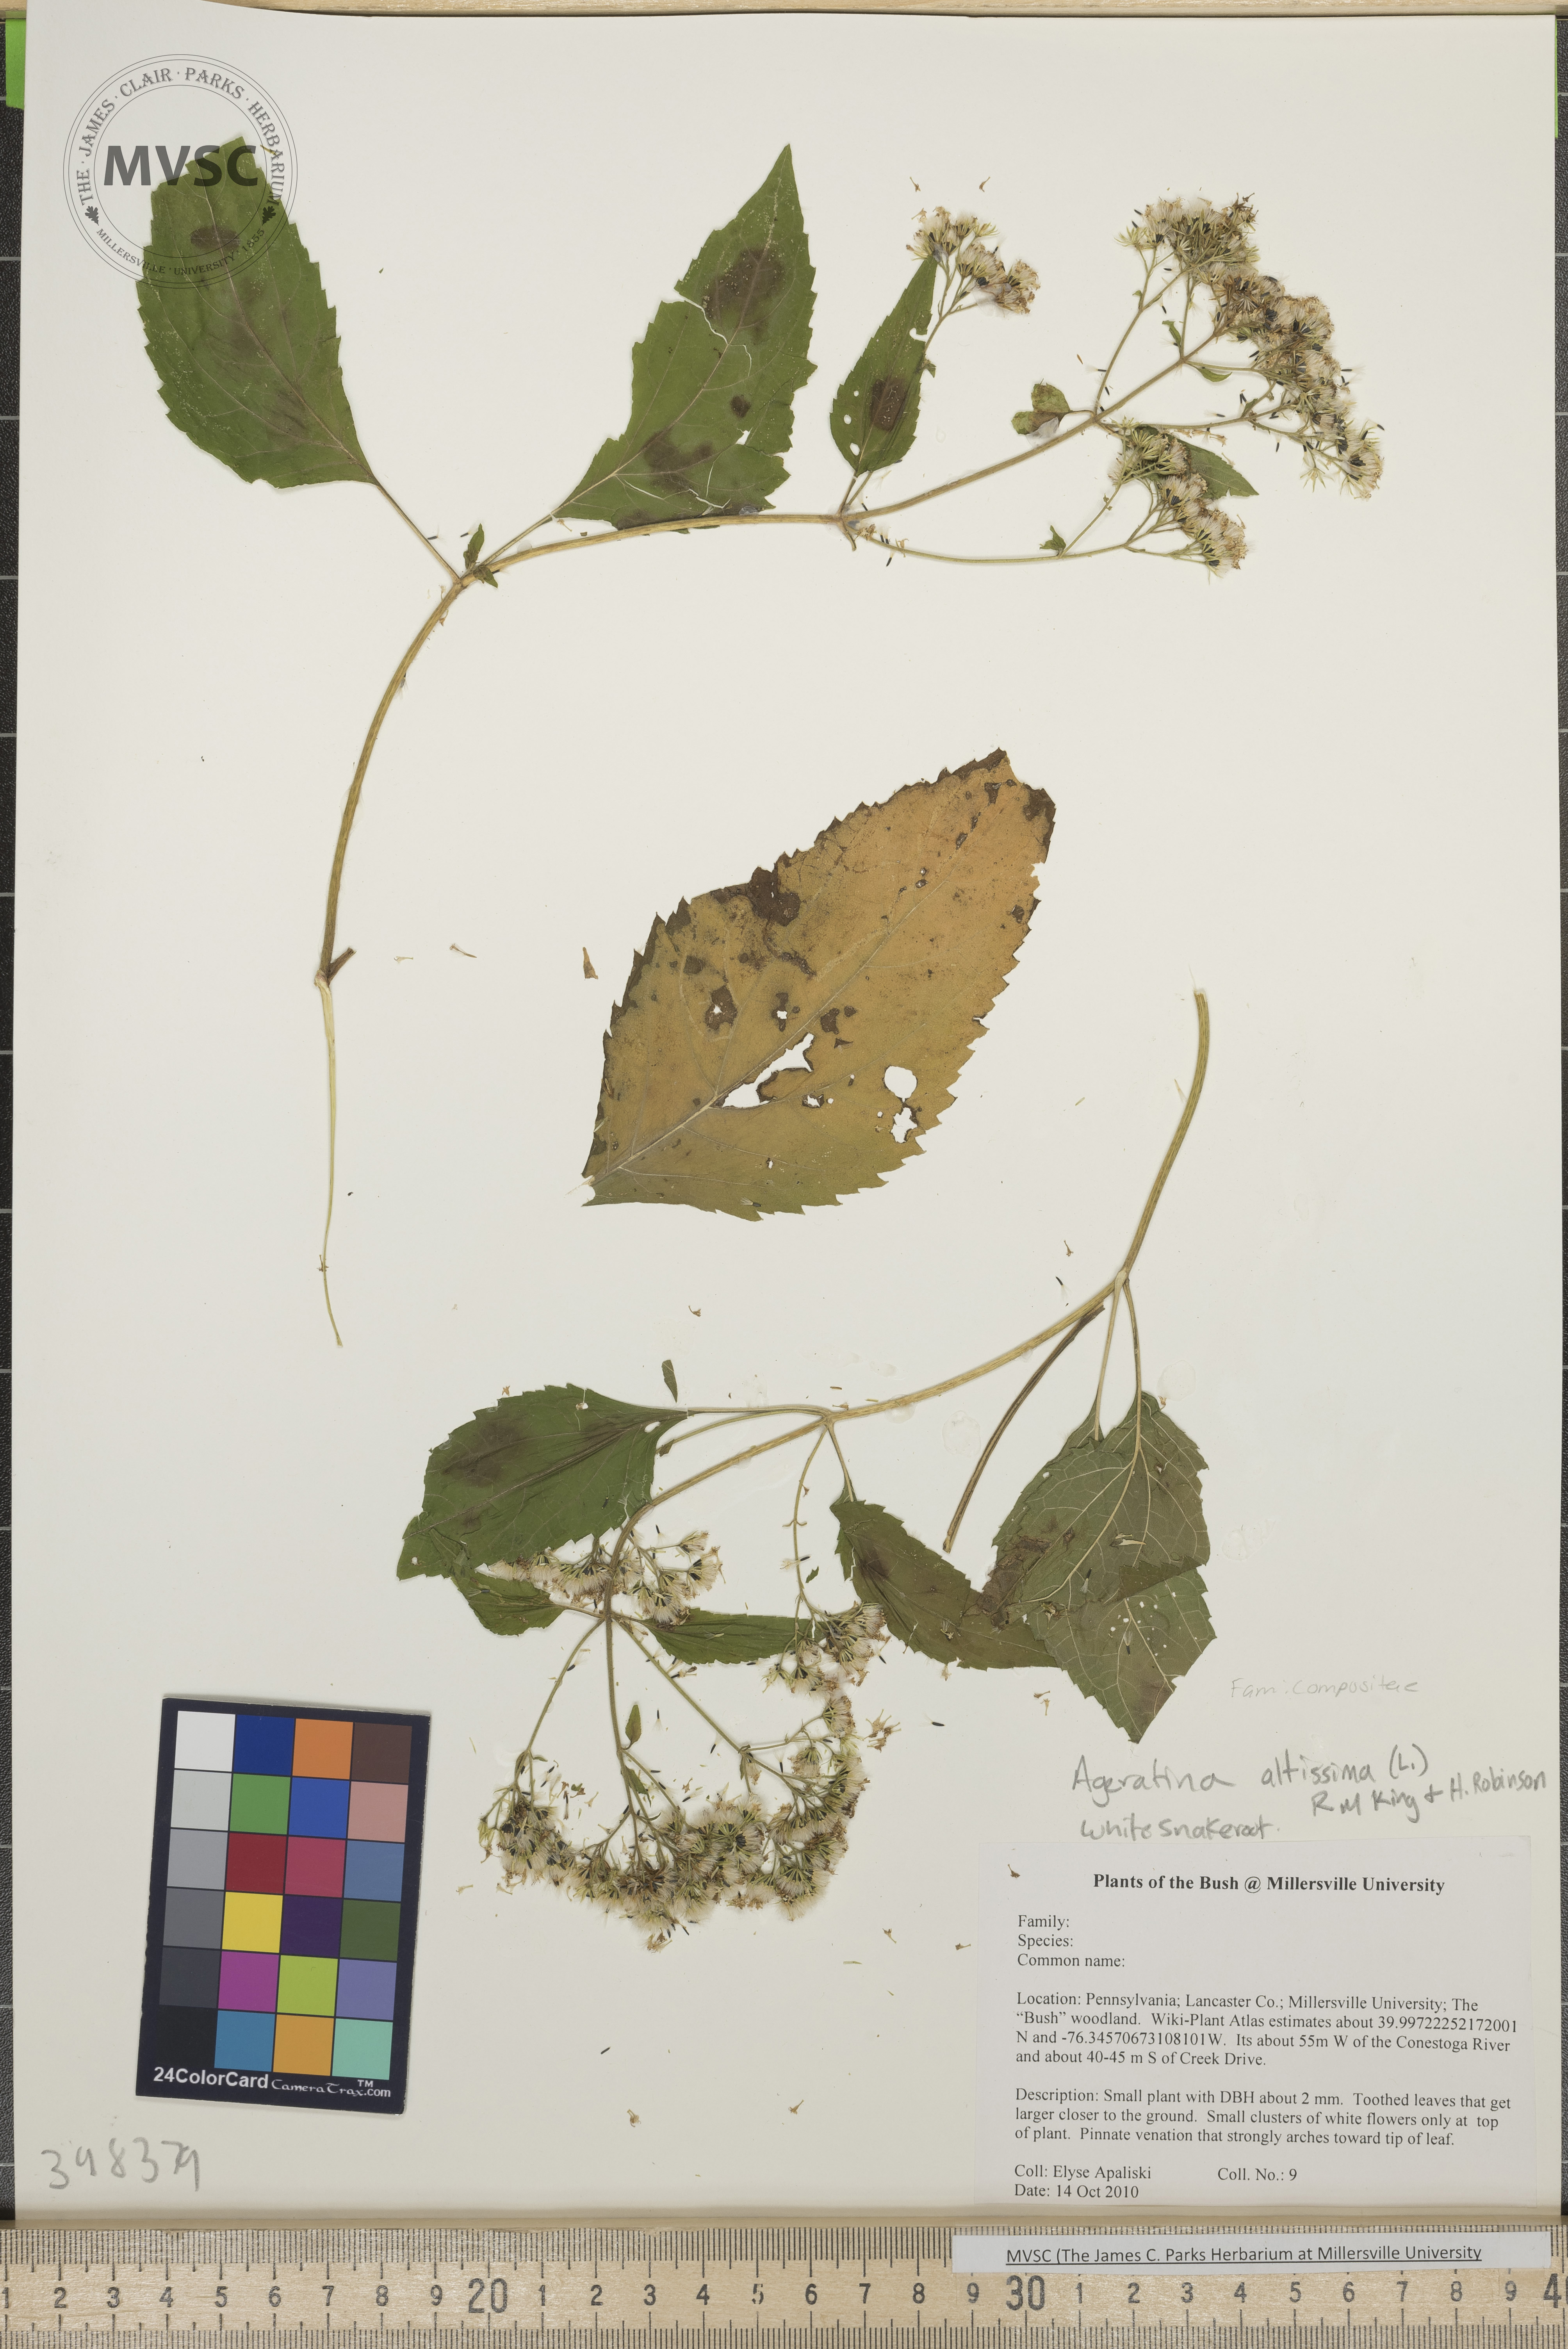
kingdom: Plantae
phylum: Tracheophyta
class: Magnoliopsida
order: Asterales
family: Asteraceae
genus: Ageratina
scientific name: Ageratina altissima
